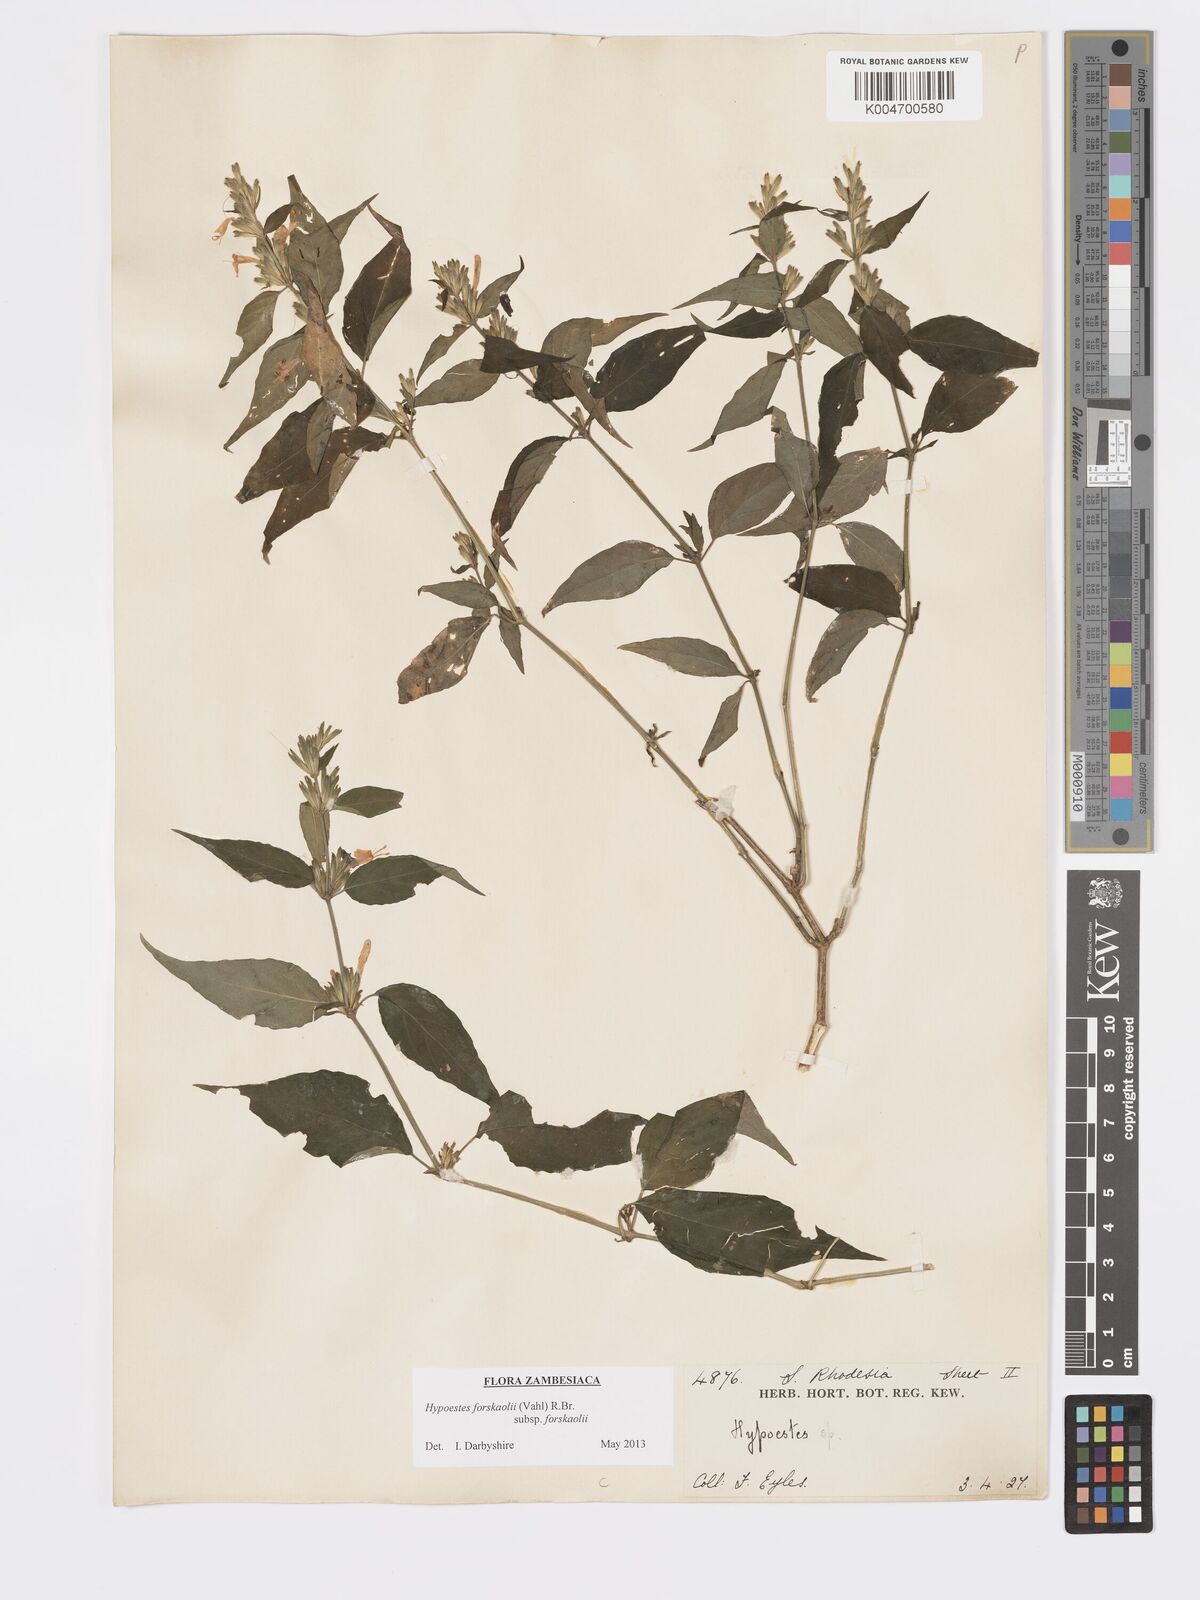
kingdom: Plantae
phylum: Tracheophyta
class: Magnoliopsida
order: Lamiales
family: Acanthaceae
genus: Hypoestes
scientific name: Hypoestes forskaolii
